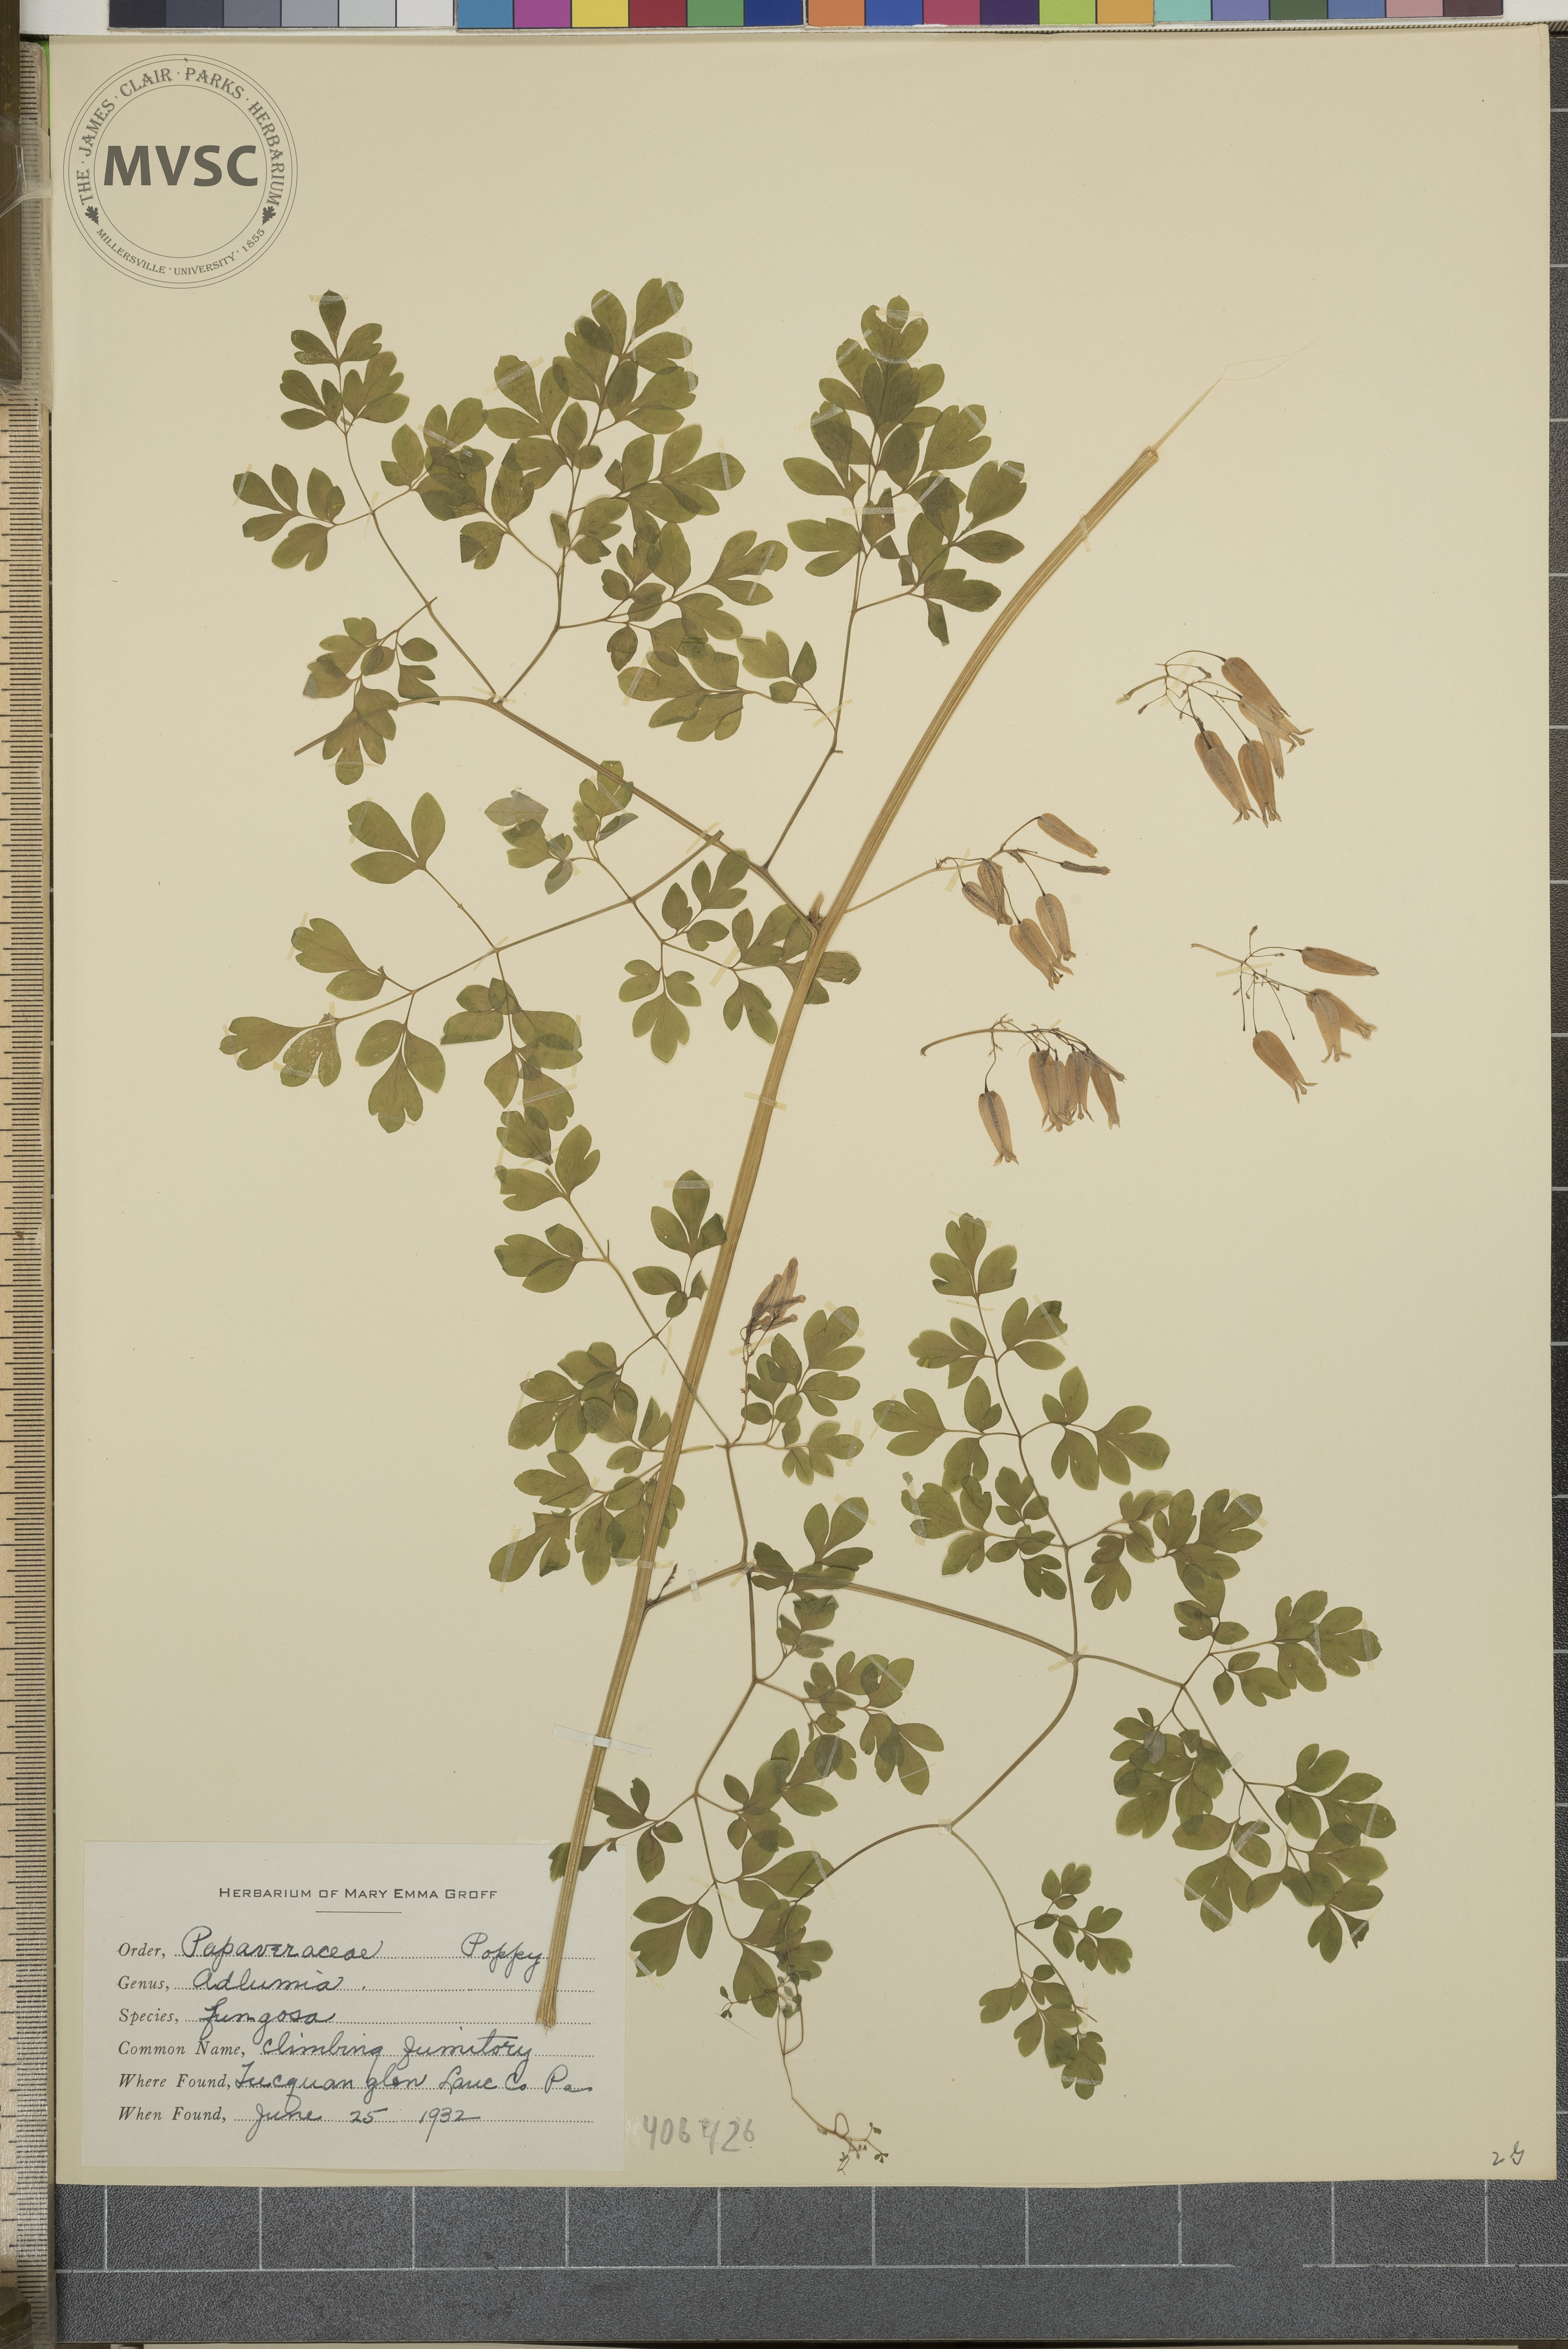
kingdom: Plantae
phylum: Tracheophyta
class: Magnoliopsida
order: Ranunculales
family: Papaveraceae
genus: Adlumia
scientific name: Adlumia fungosa
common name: Climbing Fumitory
